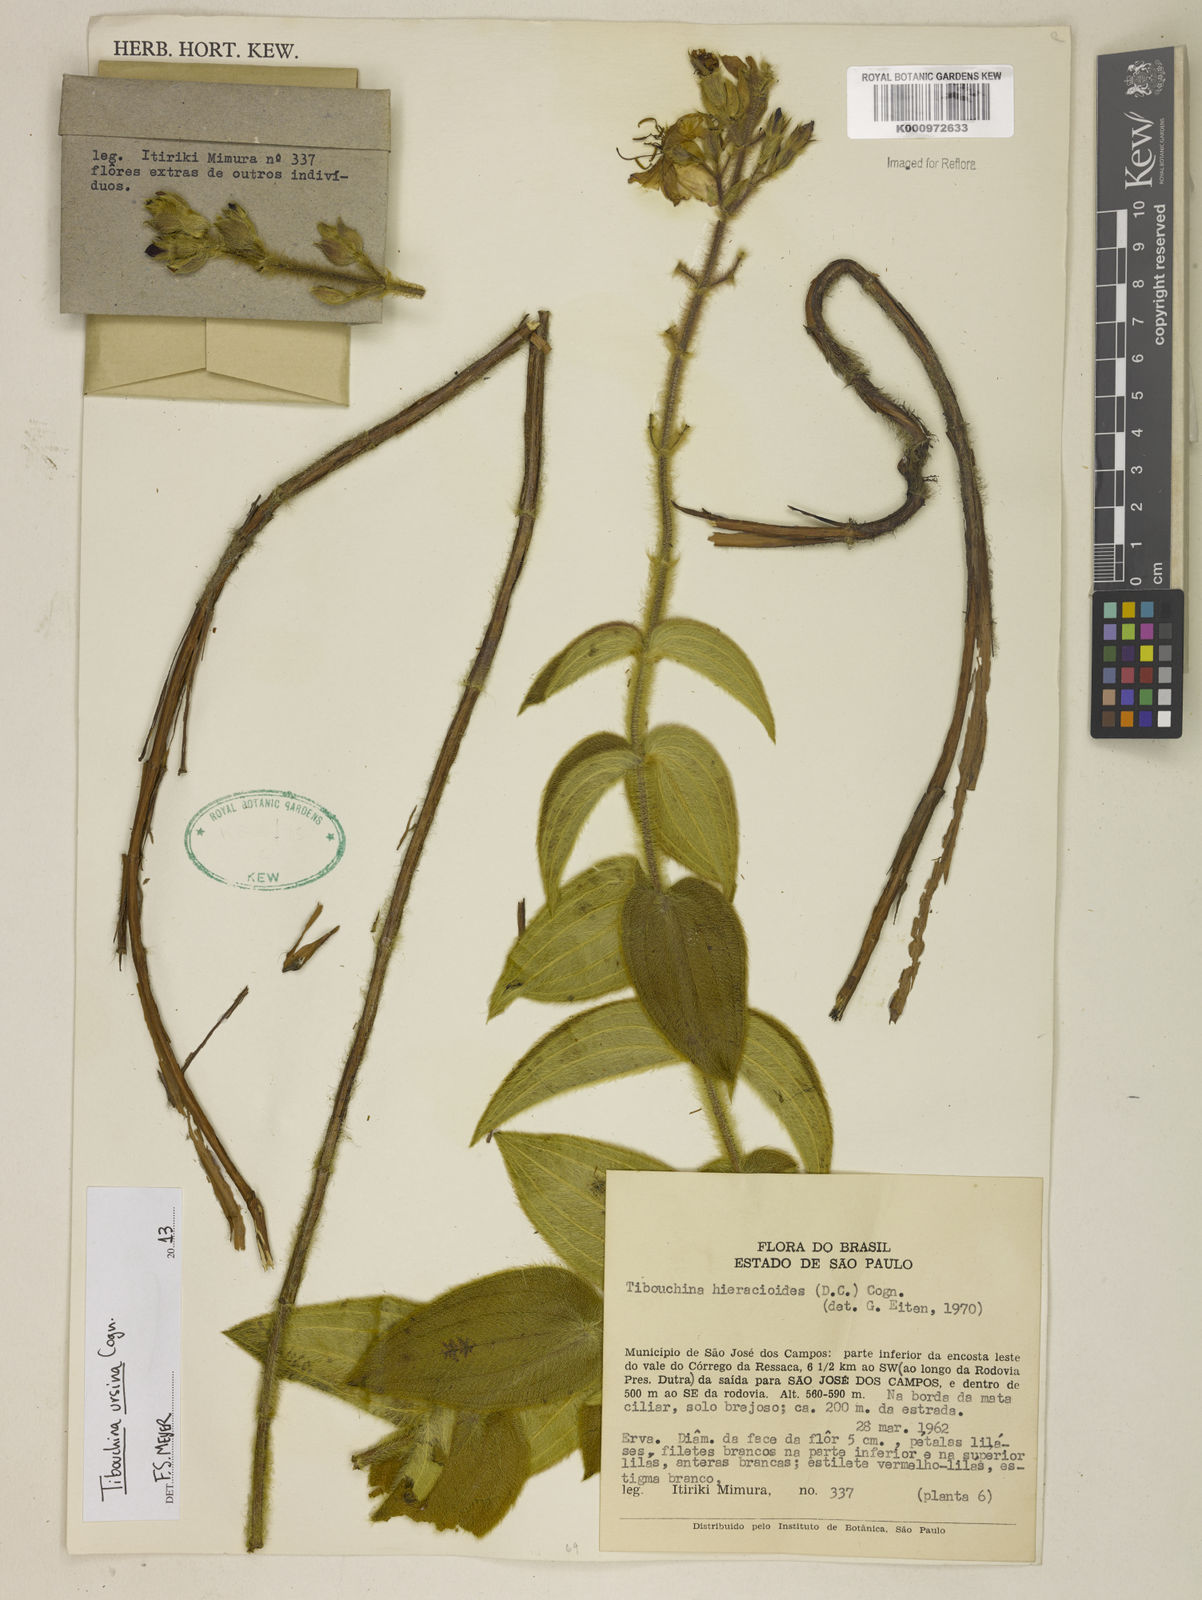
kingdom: Plantae
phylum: Tracheophyta
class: Magnoliopsida
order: Myrtales
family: Melastomataceae
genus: Pleroma
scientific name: Pleroma ursinum
